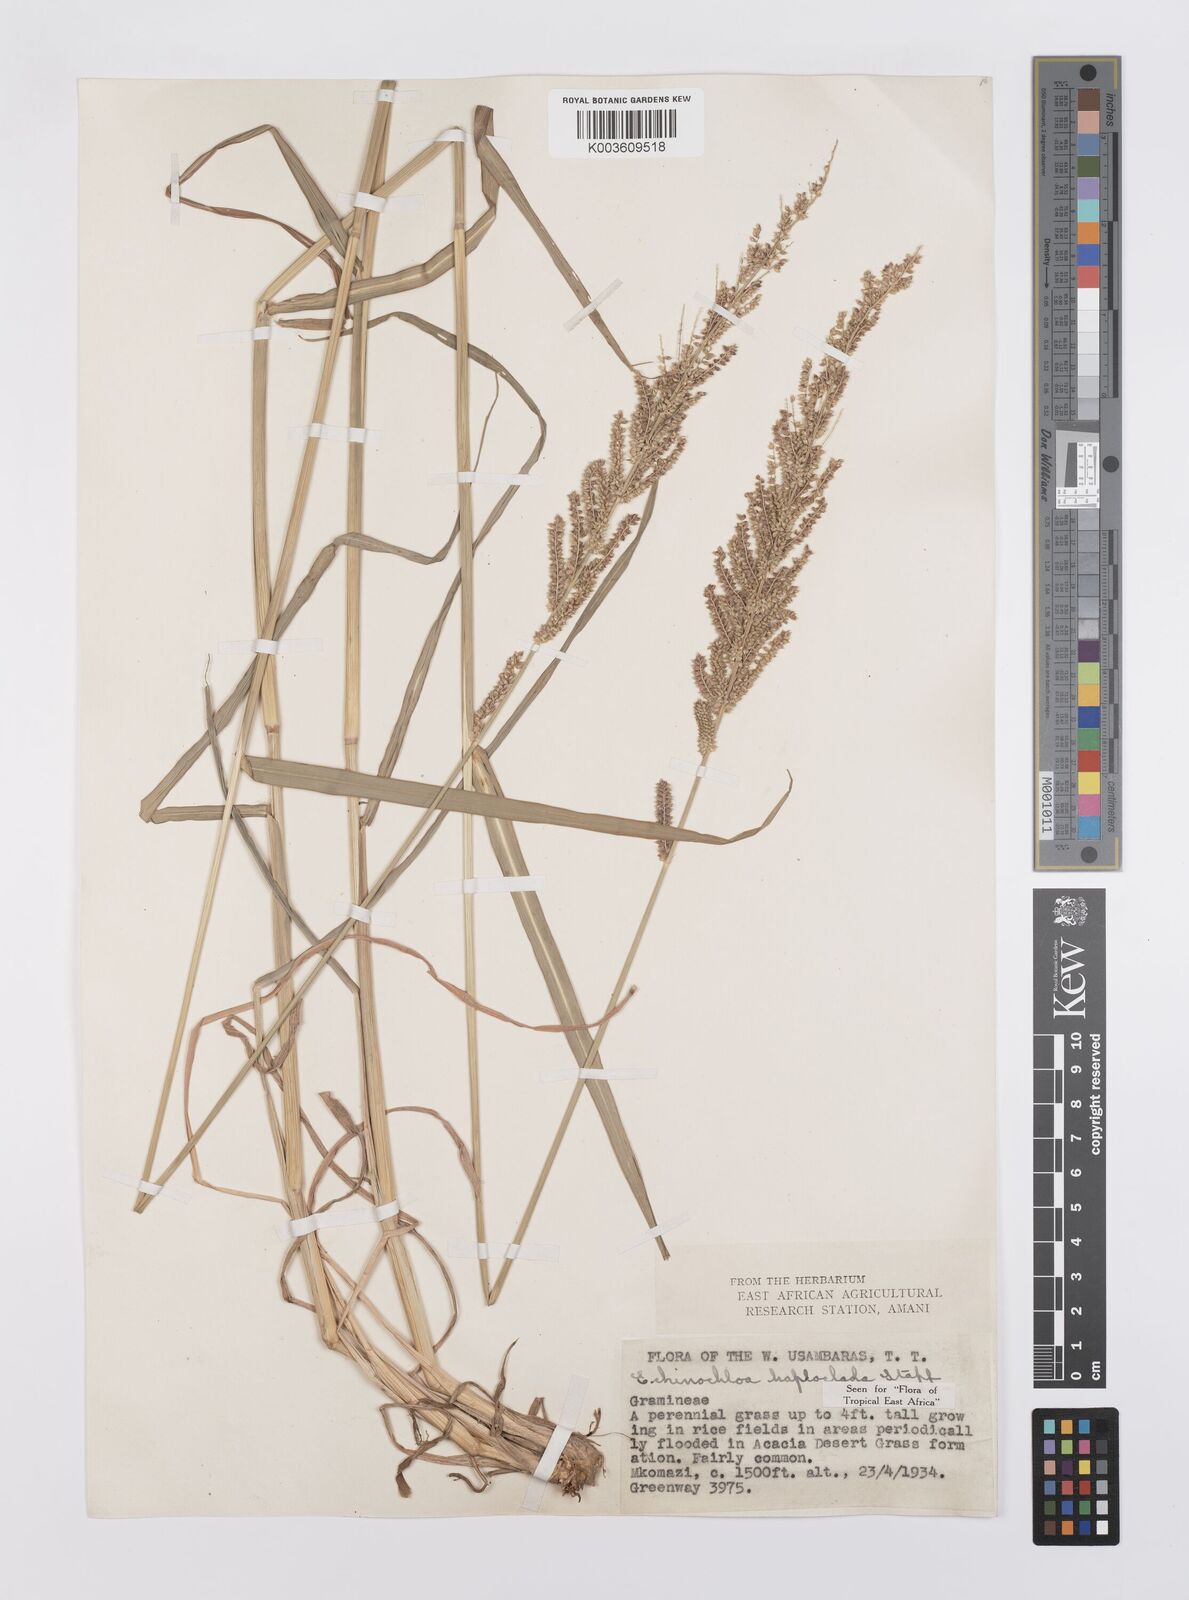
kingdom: Plantae
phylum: Tracheophyta
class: Liliopsida
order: Poales
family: Poaceae
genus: Echinochloa
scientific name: Echinochloa haploclada
